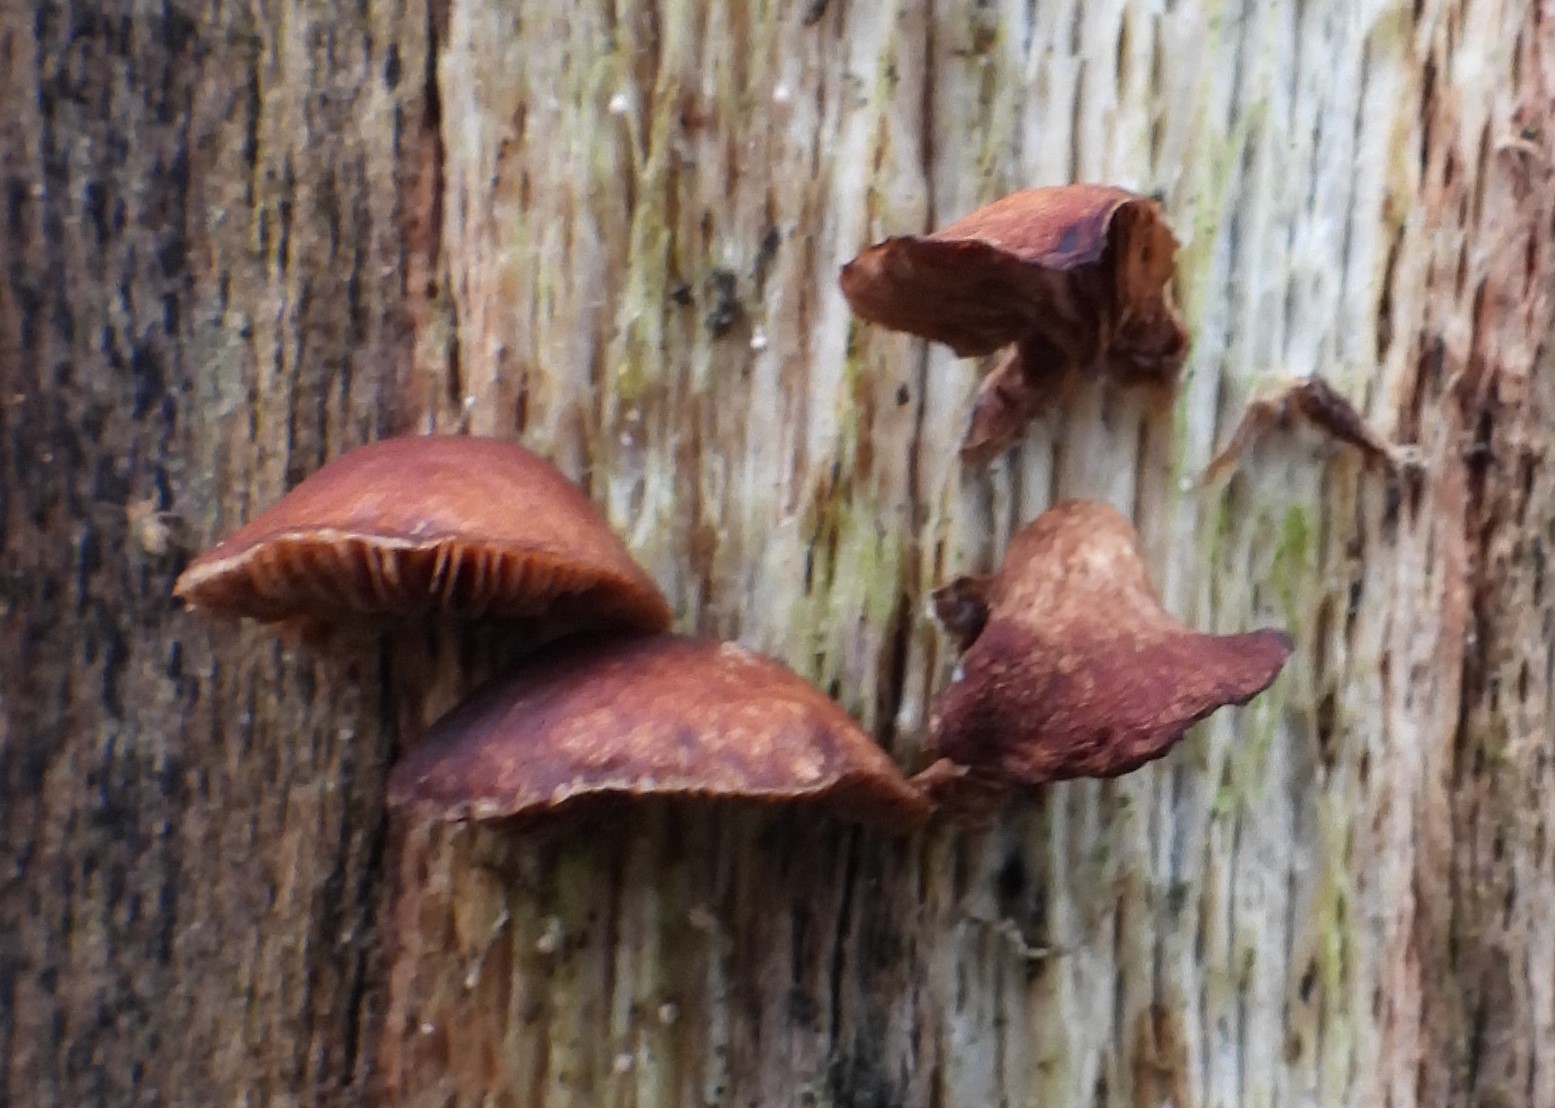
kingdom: Fungi
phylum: Basidiomycota
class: Agaricomycetes
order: Agaricales
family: Strophariaceae
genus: Deconica
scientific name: Deconica horizontalis
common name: ved-stråhat
